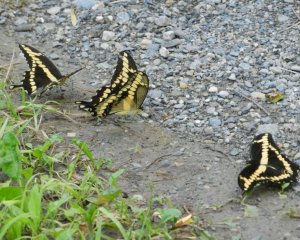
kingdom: Animalia
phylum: Arthropoda
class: Insecta
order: Lepidoptera
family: Papilionidae
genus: Papilio
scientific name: Papilio cresphontes
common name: Eastern Giant Swallowtail
